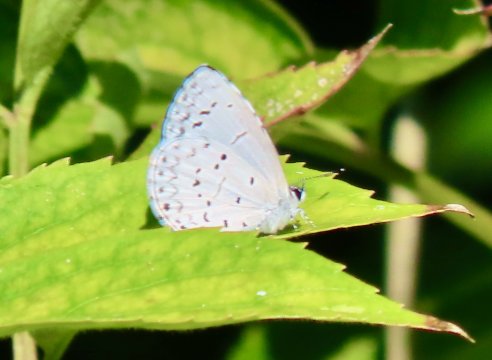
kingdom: Animalia
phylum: Arthropoda
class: Insecta
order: Lepidoptera
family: Lycaenidae
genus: Cyaniris
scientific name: Cyaniris neglecta
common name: Summer Azure
